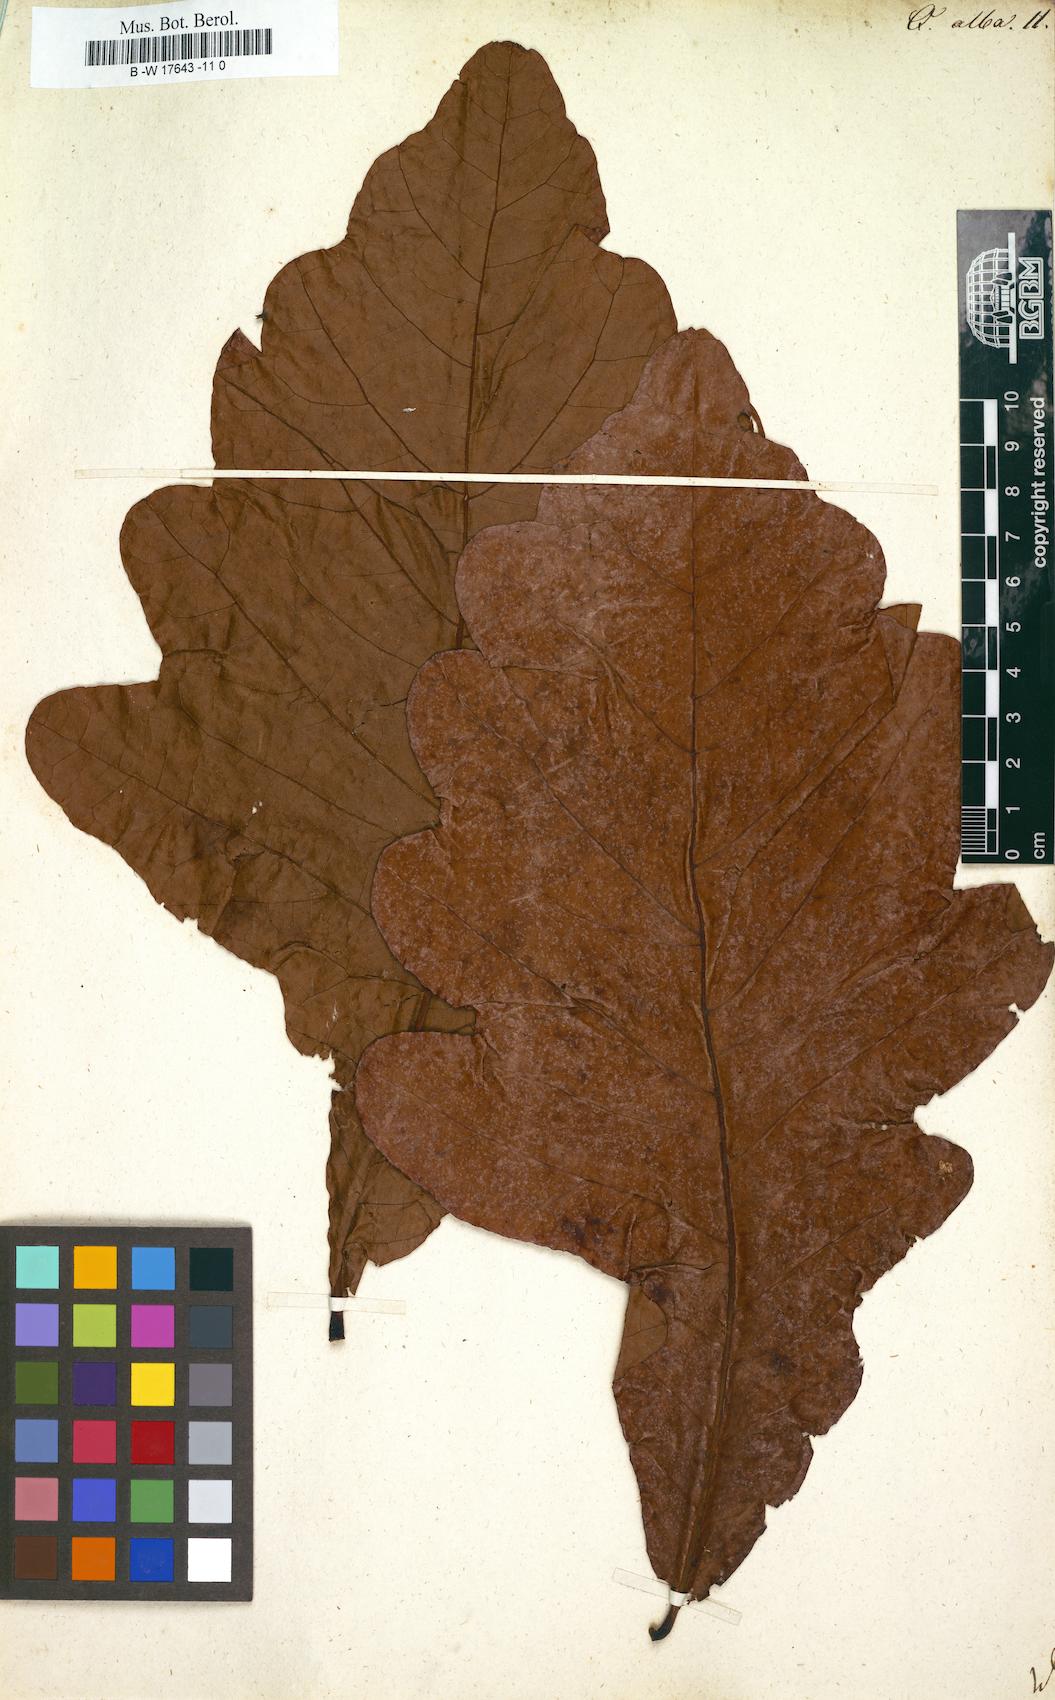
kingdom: Plantae
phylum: Tracheophyta
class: Magnoliopsida
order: Fagales
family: Fagaceae
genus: Quercus
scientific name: Quercus alba
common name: White oak
